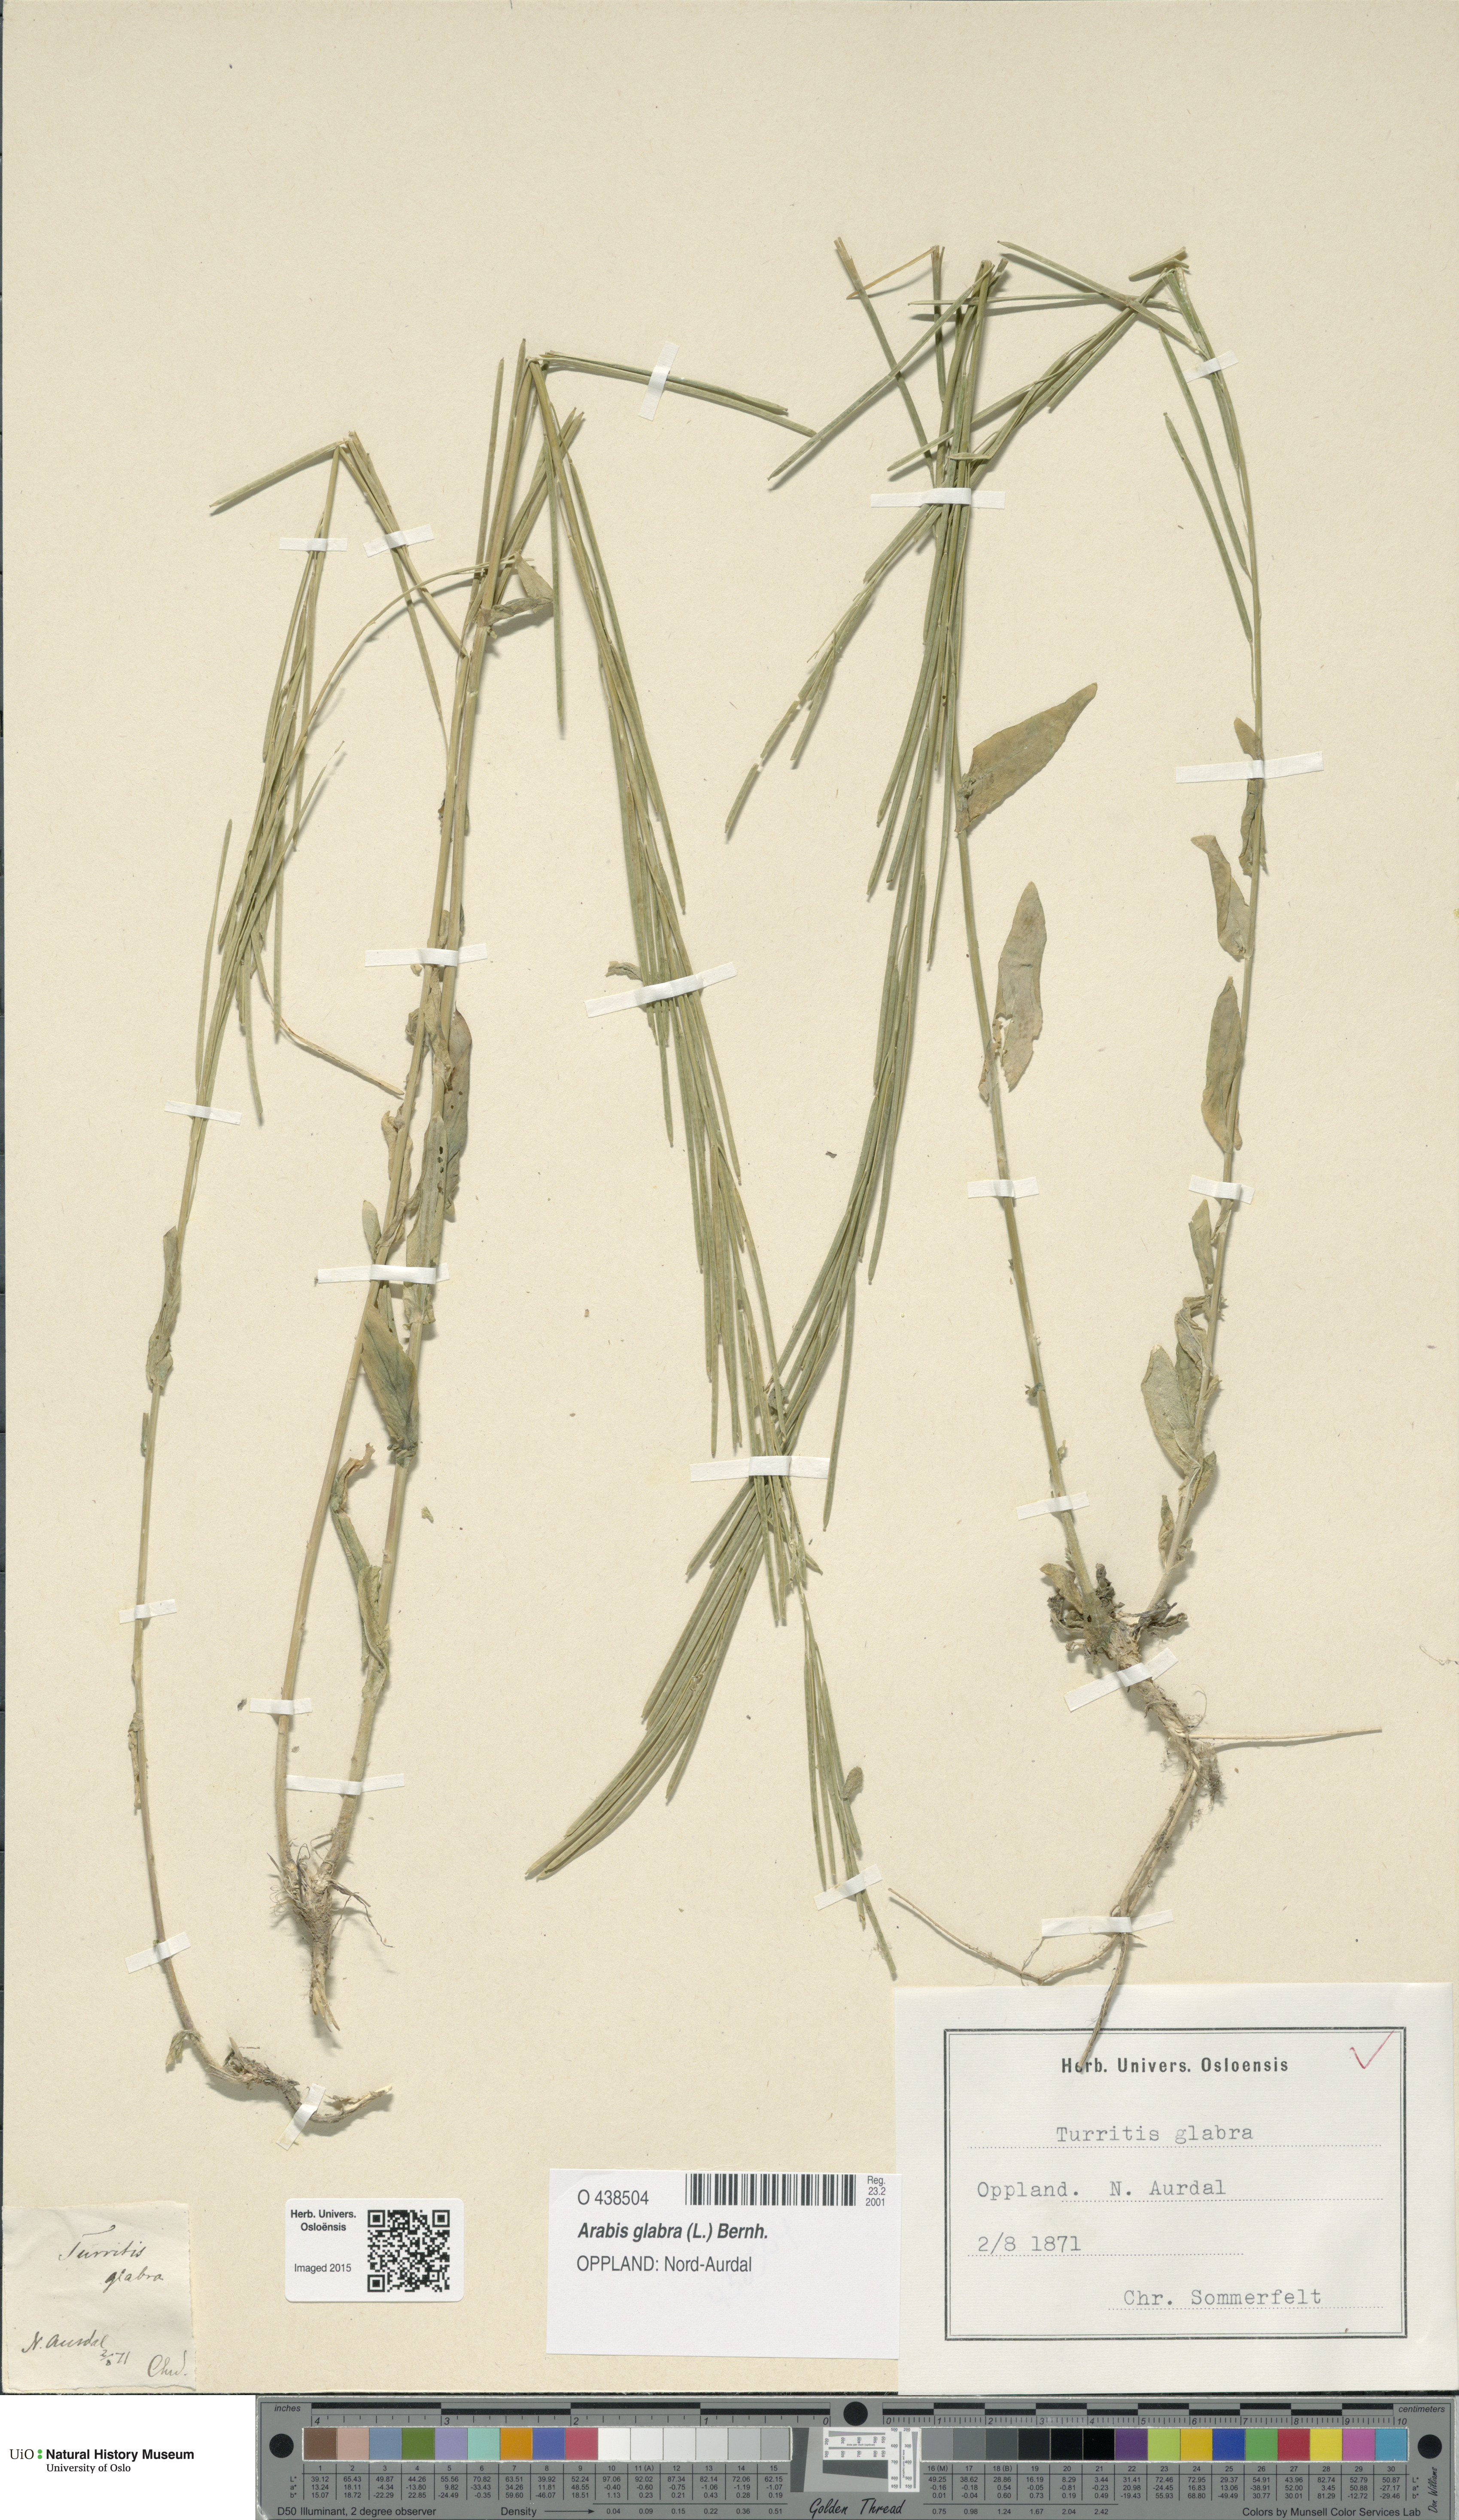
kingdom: Plantae
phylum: Tracheophyta
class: Magnoliopsida
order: Brassicales
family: Brassicaceae
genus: Turritis
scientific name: Turritis glabra
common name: Tower rockcress
